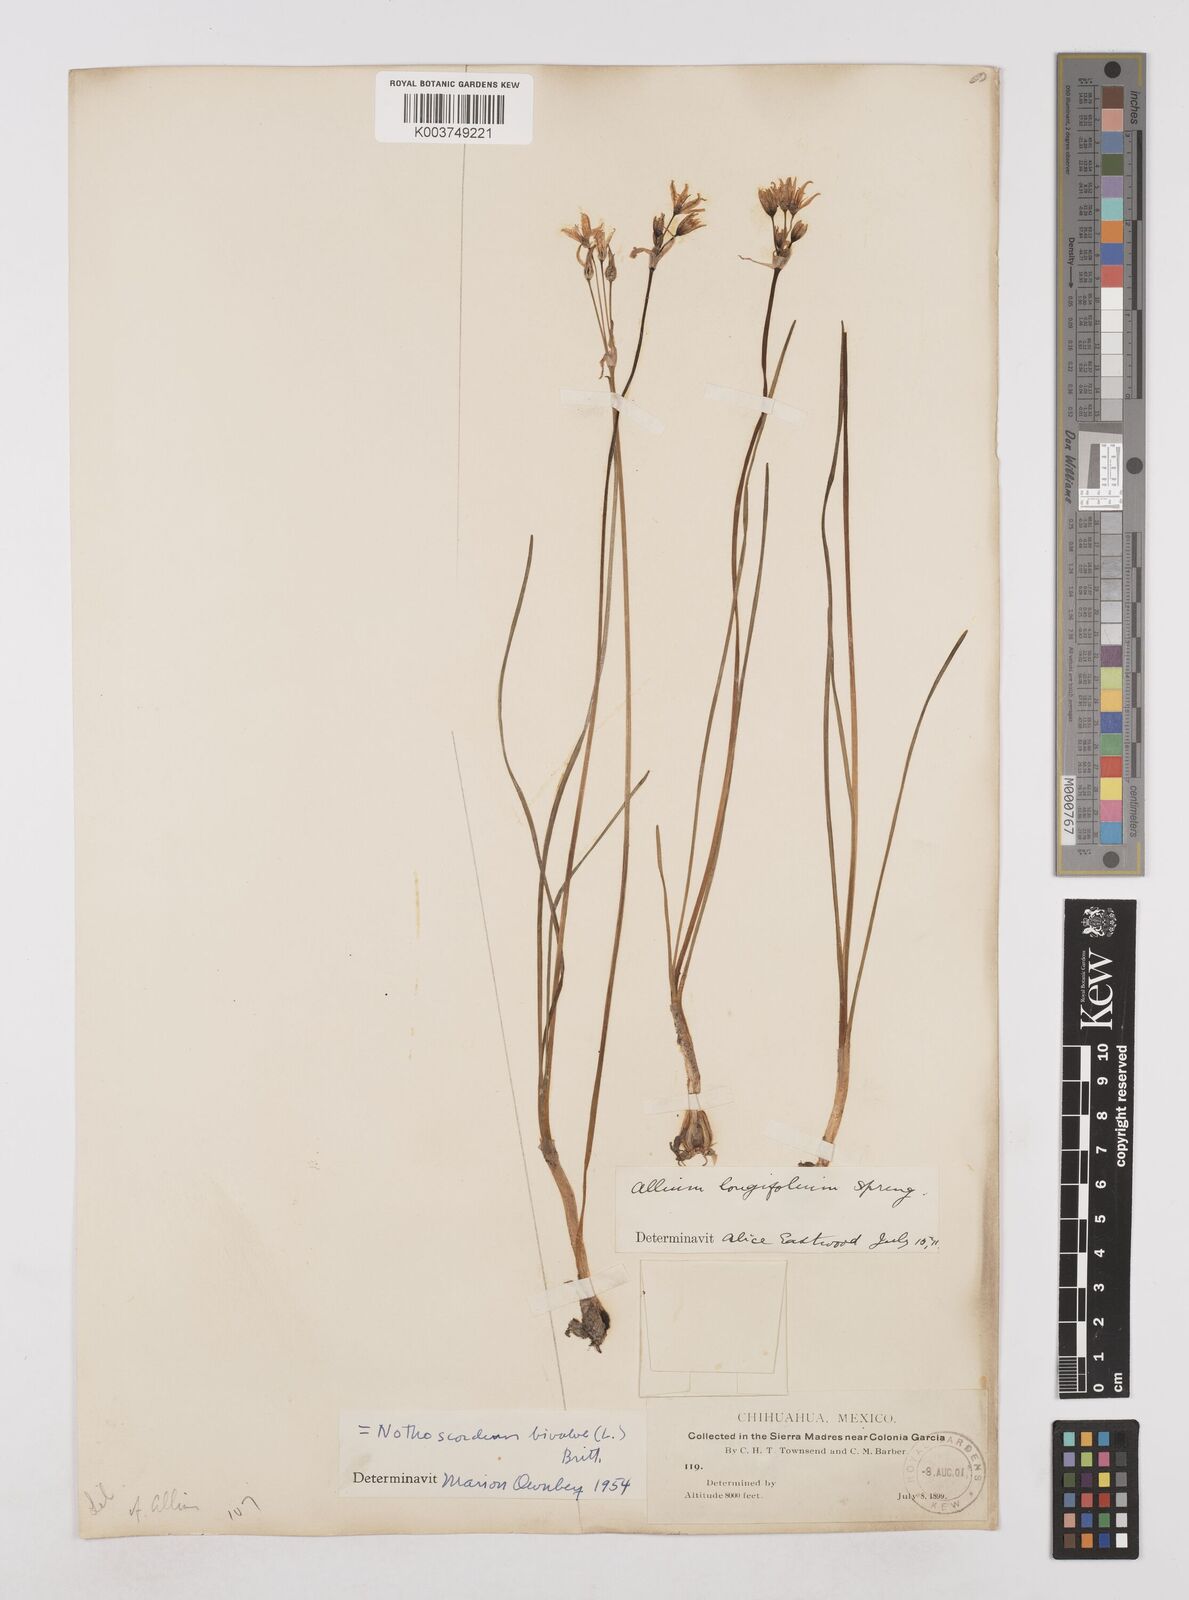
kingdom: Plantae
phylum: Tracheophyta
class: Liliopsida
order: Asparagales
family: Amaryllidaceae
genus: Nothoscordum
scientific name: Nothoscordum bivalve
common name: Crow-poison
